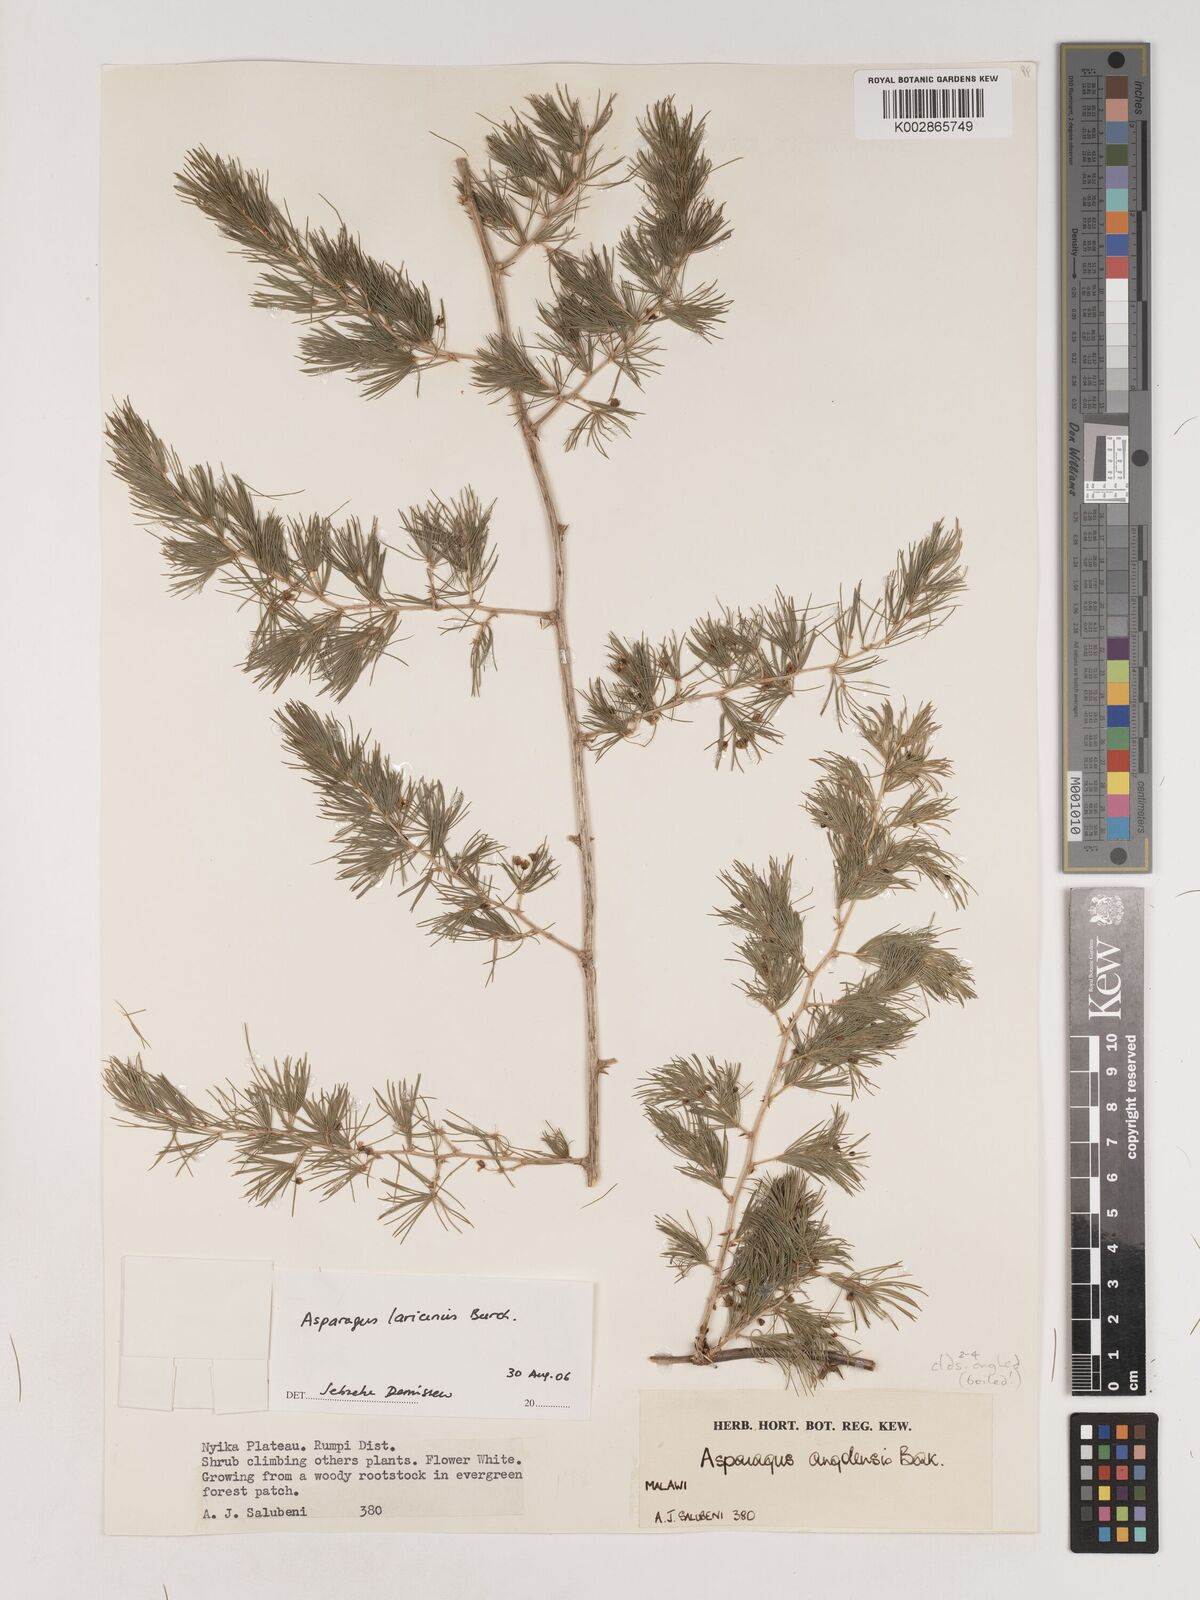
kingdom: Plantae
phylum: Tracheophyta
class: Liliopsida
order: Asparagales
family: Asparagaceae
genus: Asparagus
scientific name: Asparagus laricinus
